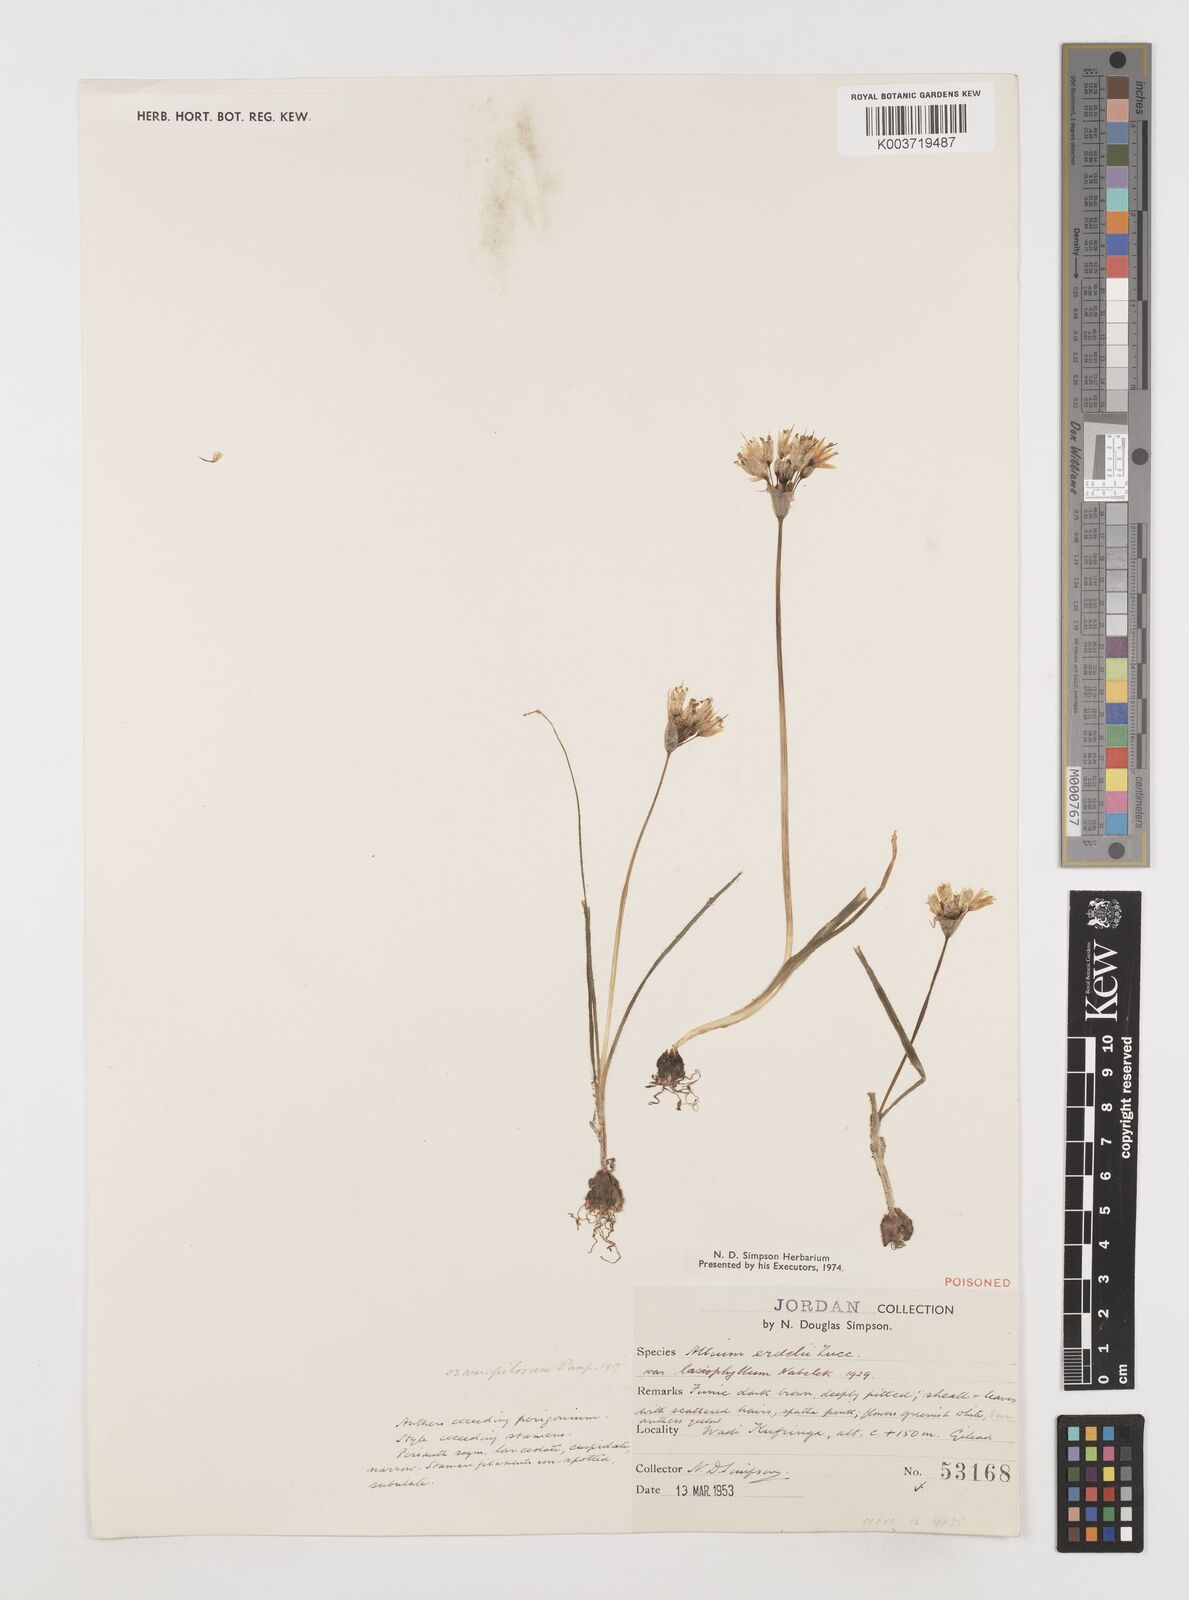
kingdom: Plantae
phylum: Tracheophyta
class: Liliopsida
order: Asparagales
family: Amaryllidaceae
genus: Allium
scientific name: Allium erdelii
